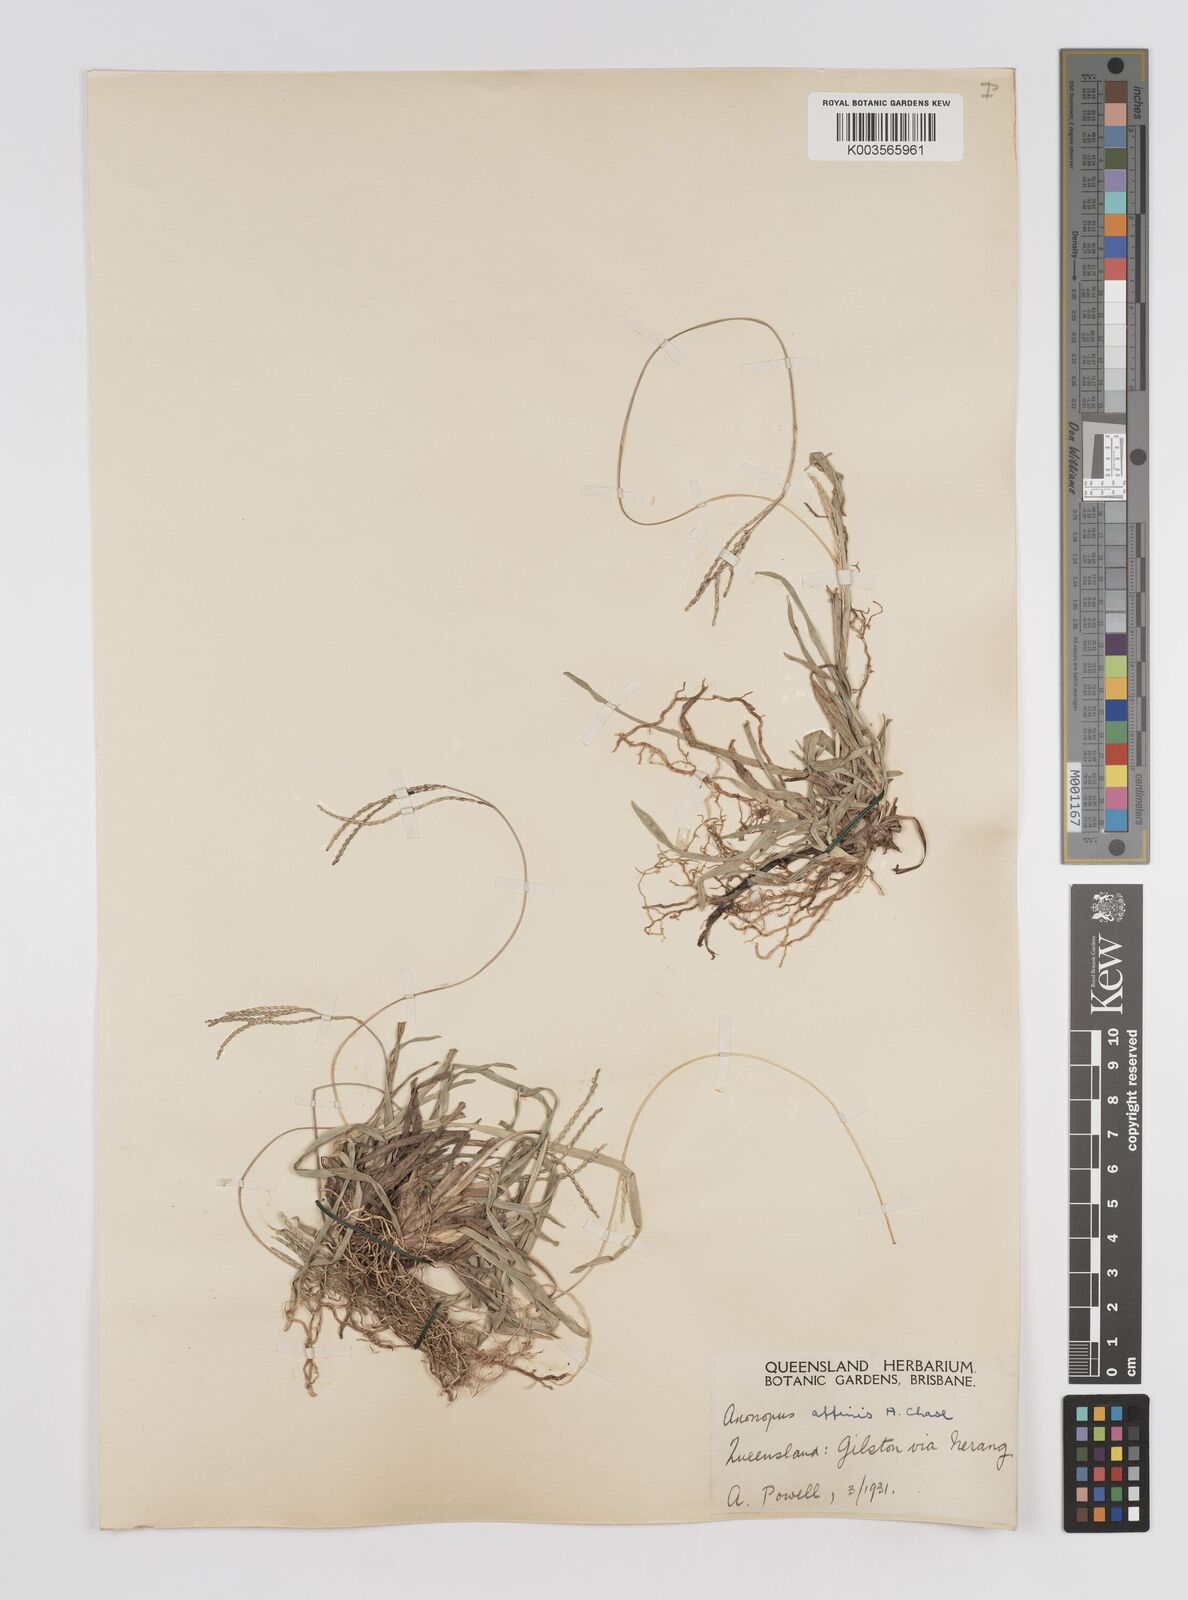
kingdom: Plantae
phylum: Tracheophyta
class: Liliopsida
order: Poales
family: Poaceae
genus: Axonopus
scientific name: Axonopus fissifolius
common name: Common carpetgrass
